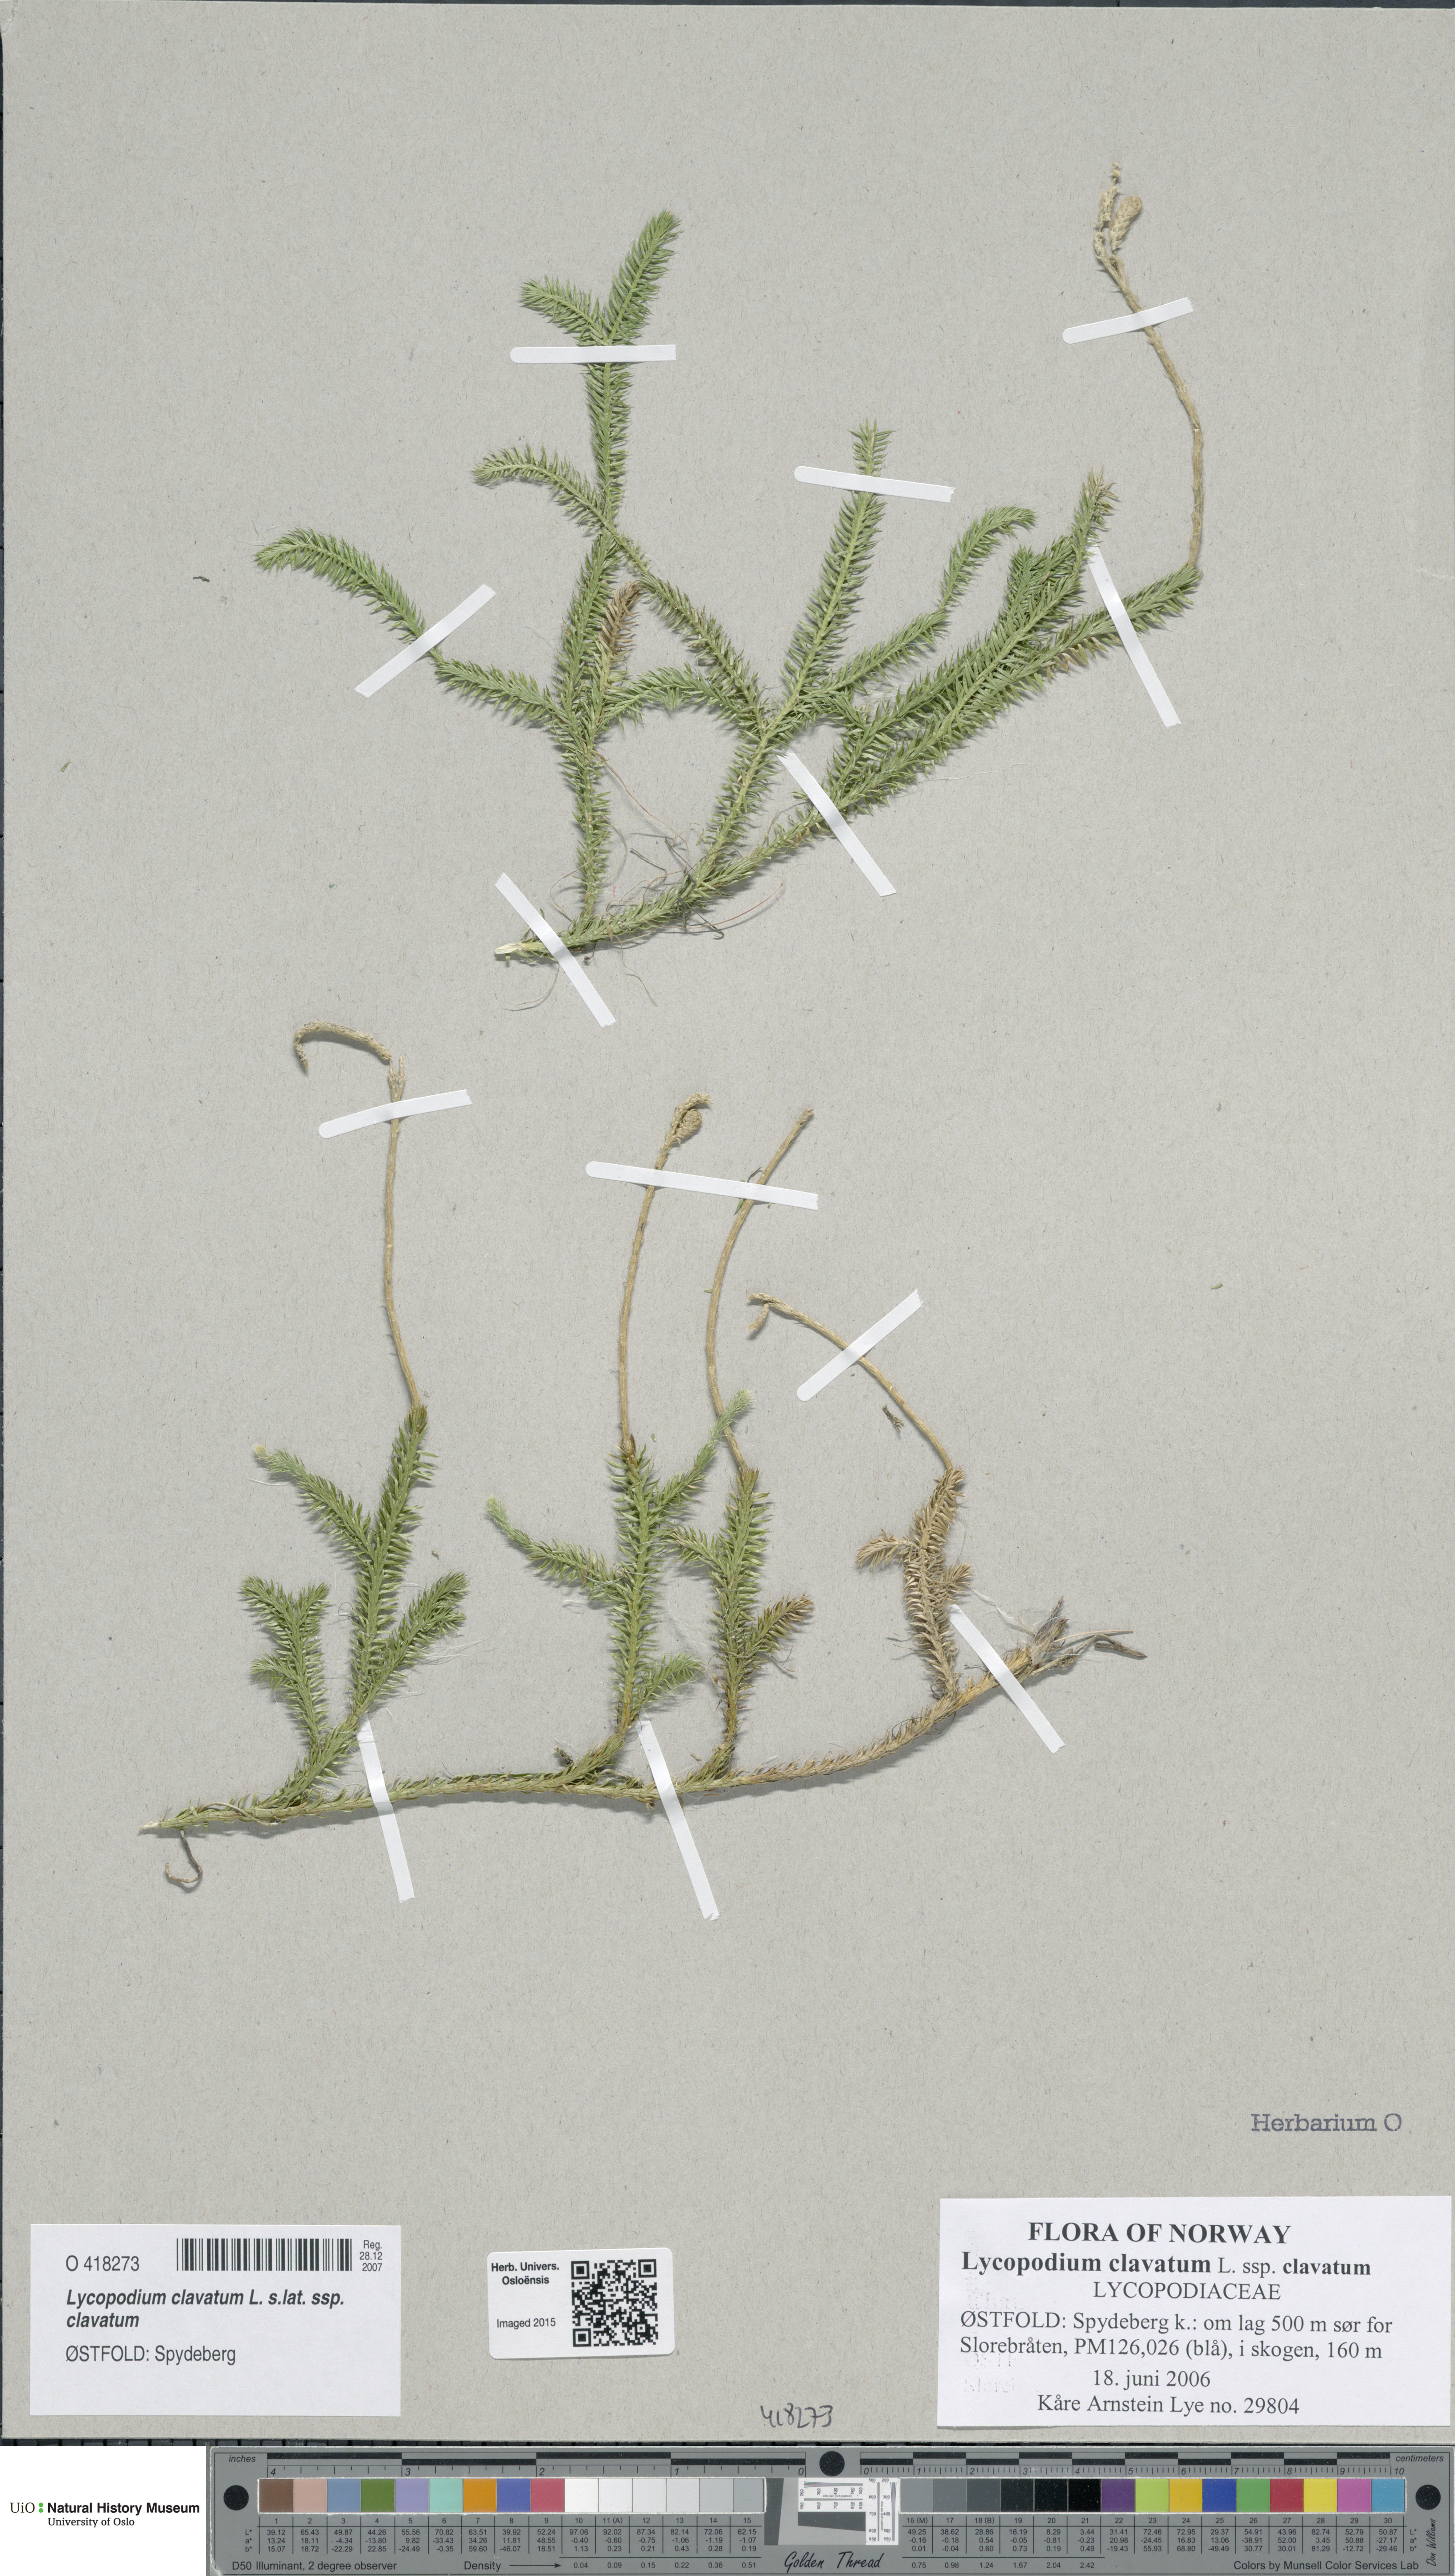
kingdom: Plantae
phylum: Tracheophyta
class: Lycopodiopsida
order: Lycopodiales
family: Lycopodiaceae
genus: Lycopodium
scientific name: Lycopodium clavatum
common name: Stag's-horn clubmoss
